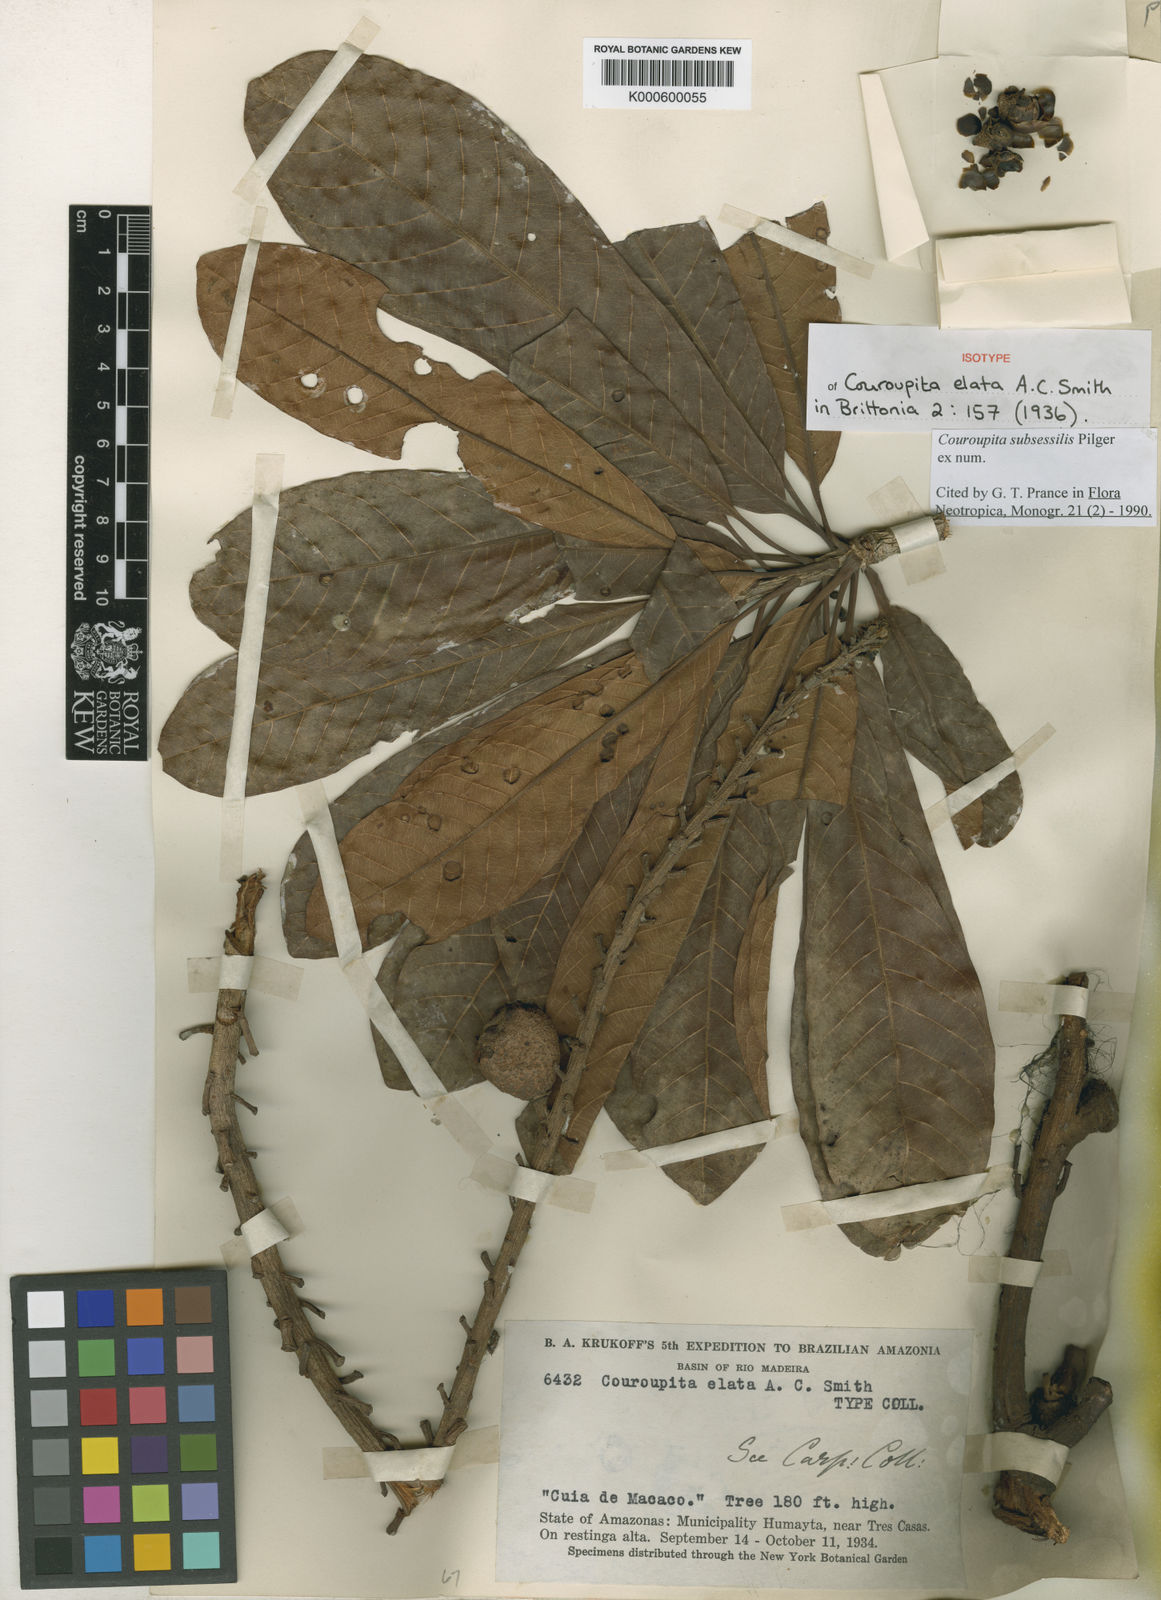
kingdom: Plantae
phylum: Tracheophyta
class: Magnoliopsida
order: Ericales
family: Lecythidaceae
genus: Couroupita
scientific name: Couroupita subsessilis
